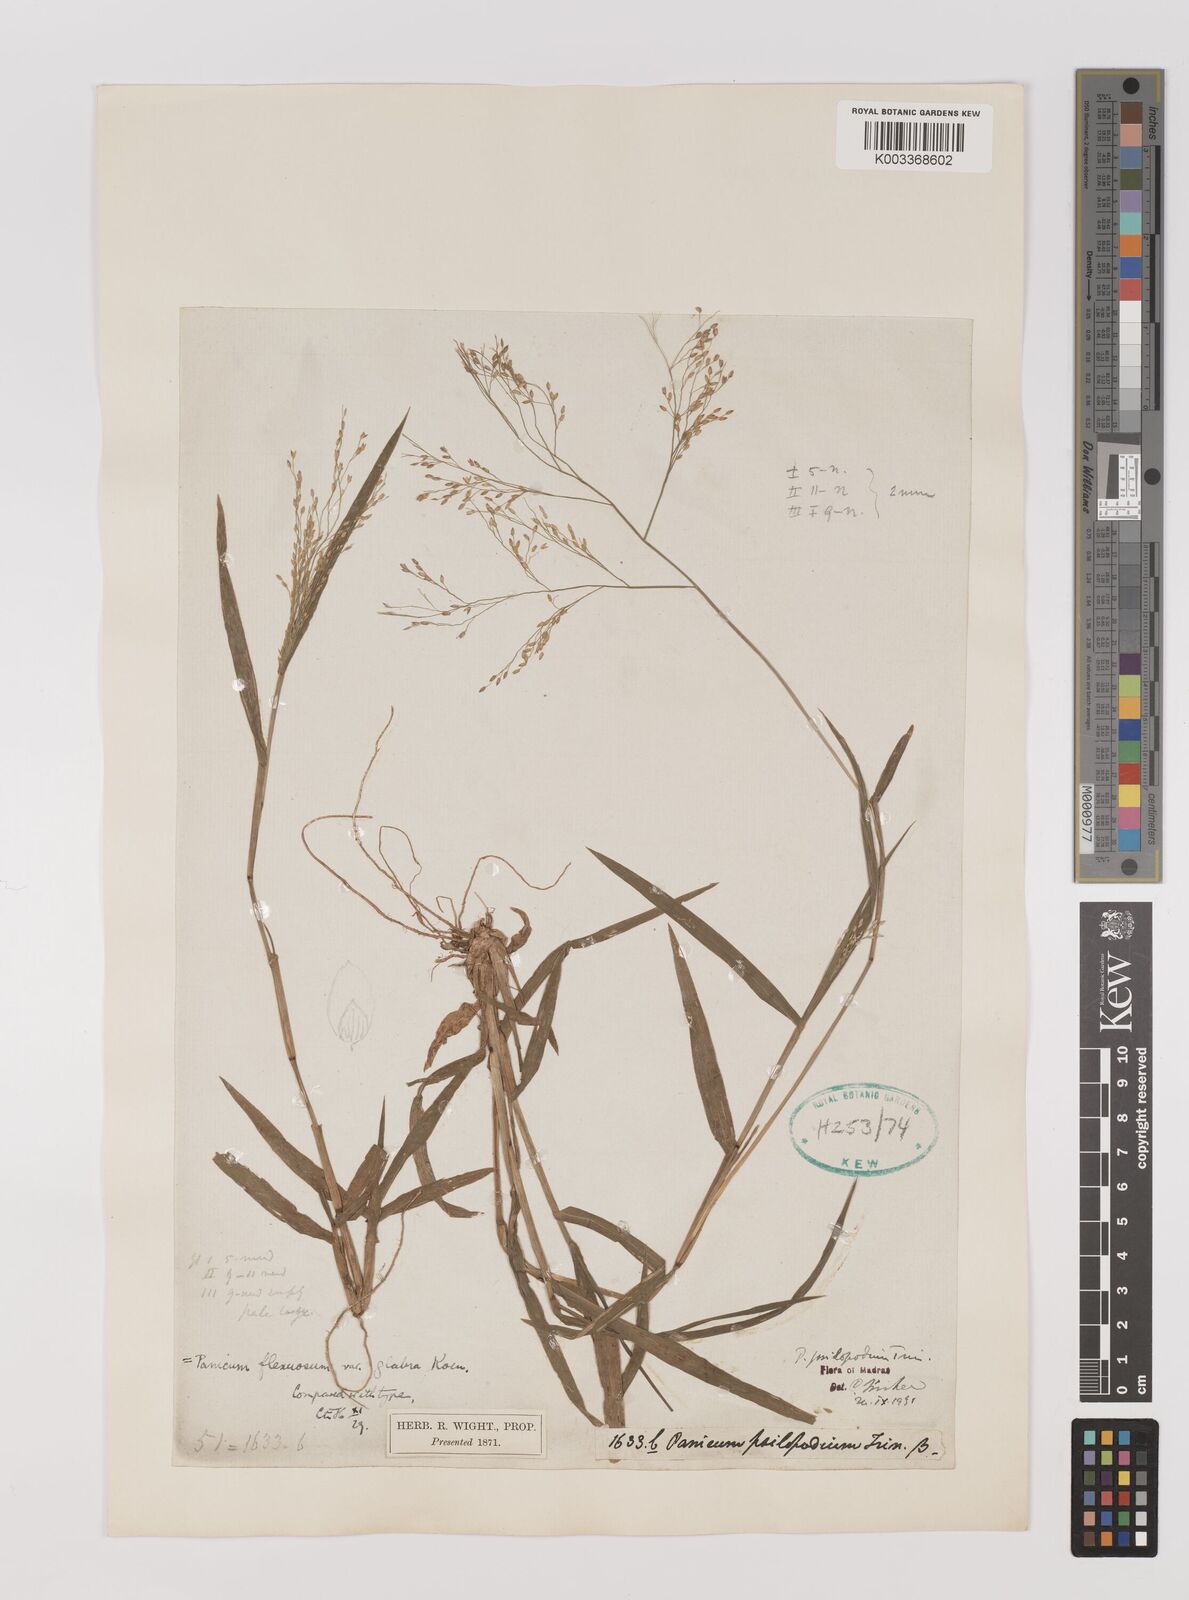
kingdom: Plantae
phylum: Tracheophyta
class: Liliopsida
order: Poales
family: Poaceae
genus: Panicum
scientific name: Panicum sumatrense
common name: Little millet
